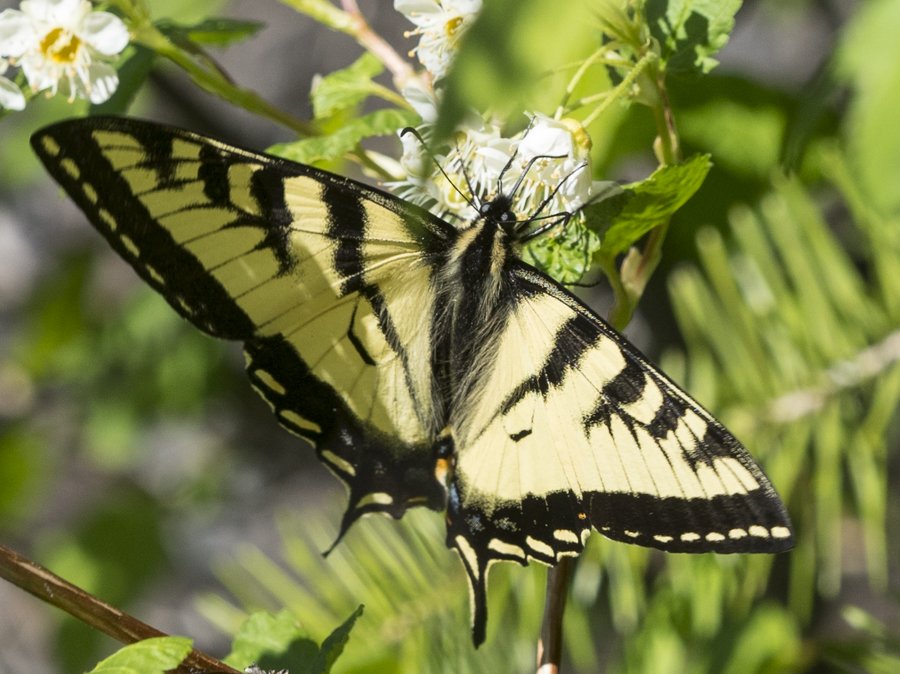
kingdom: Animalia
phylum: Arthropoda
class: Insecta
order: Lepidoptera
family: Papilionidae
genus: Pterourus
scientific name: Pterourus canadensis
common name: Canadian Tiger Swallowtail
